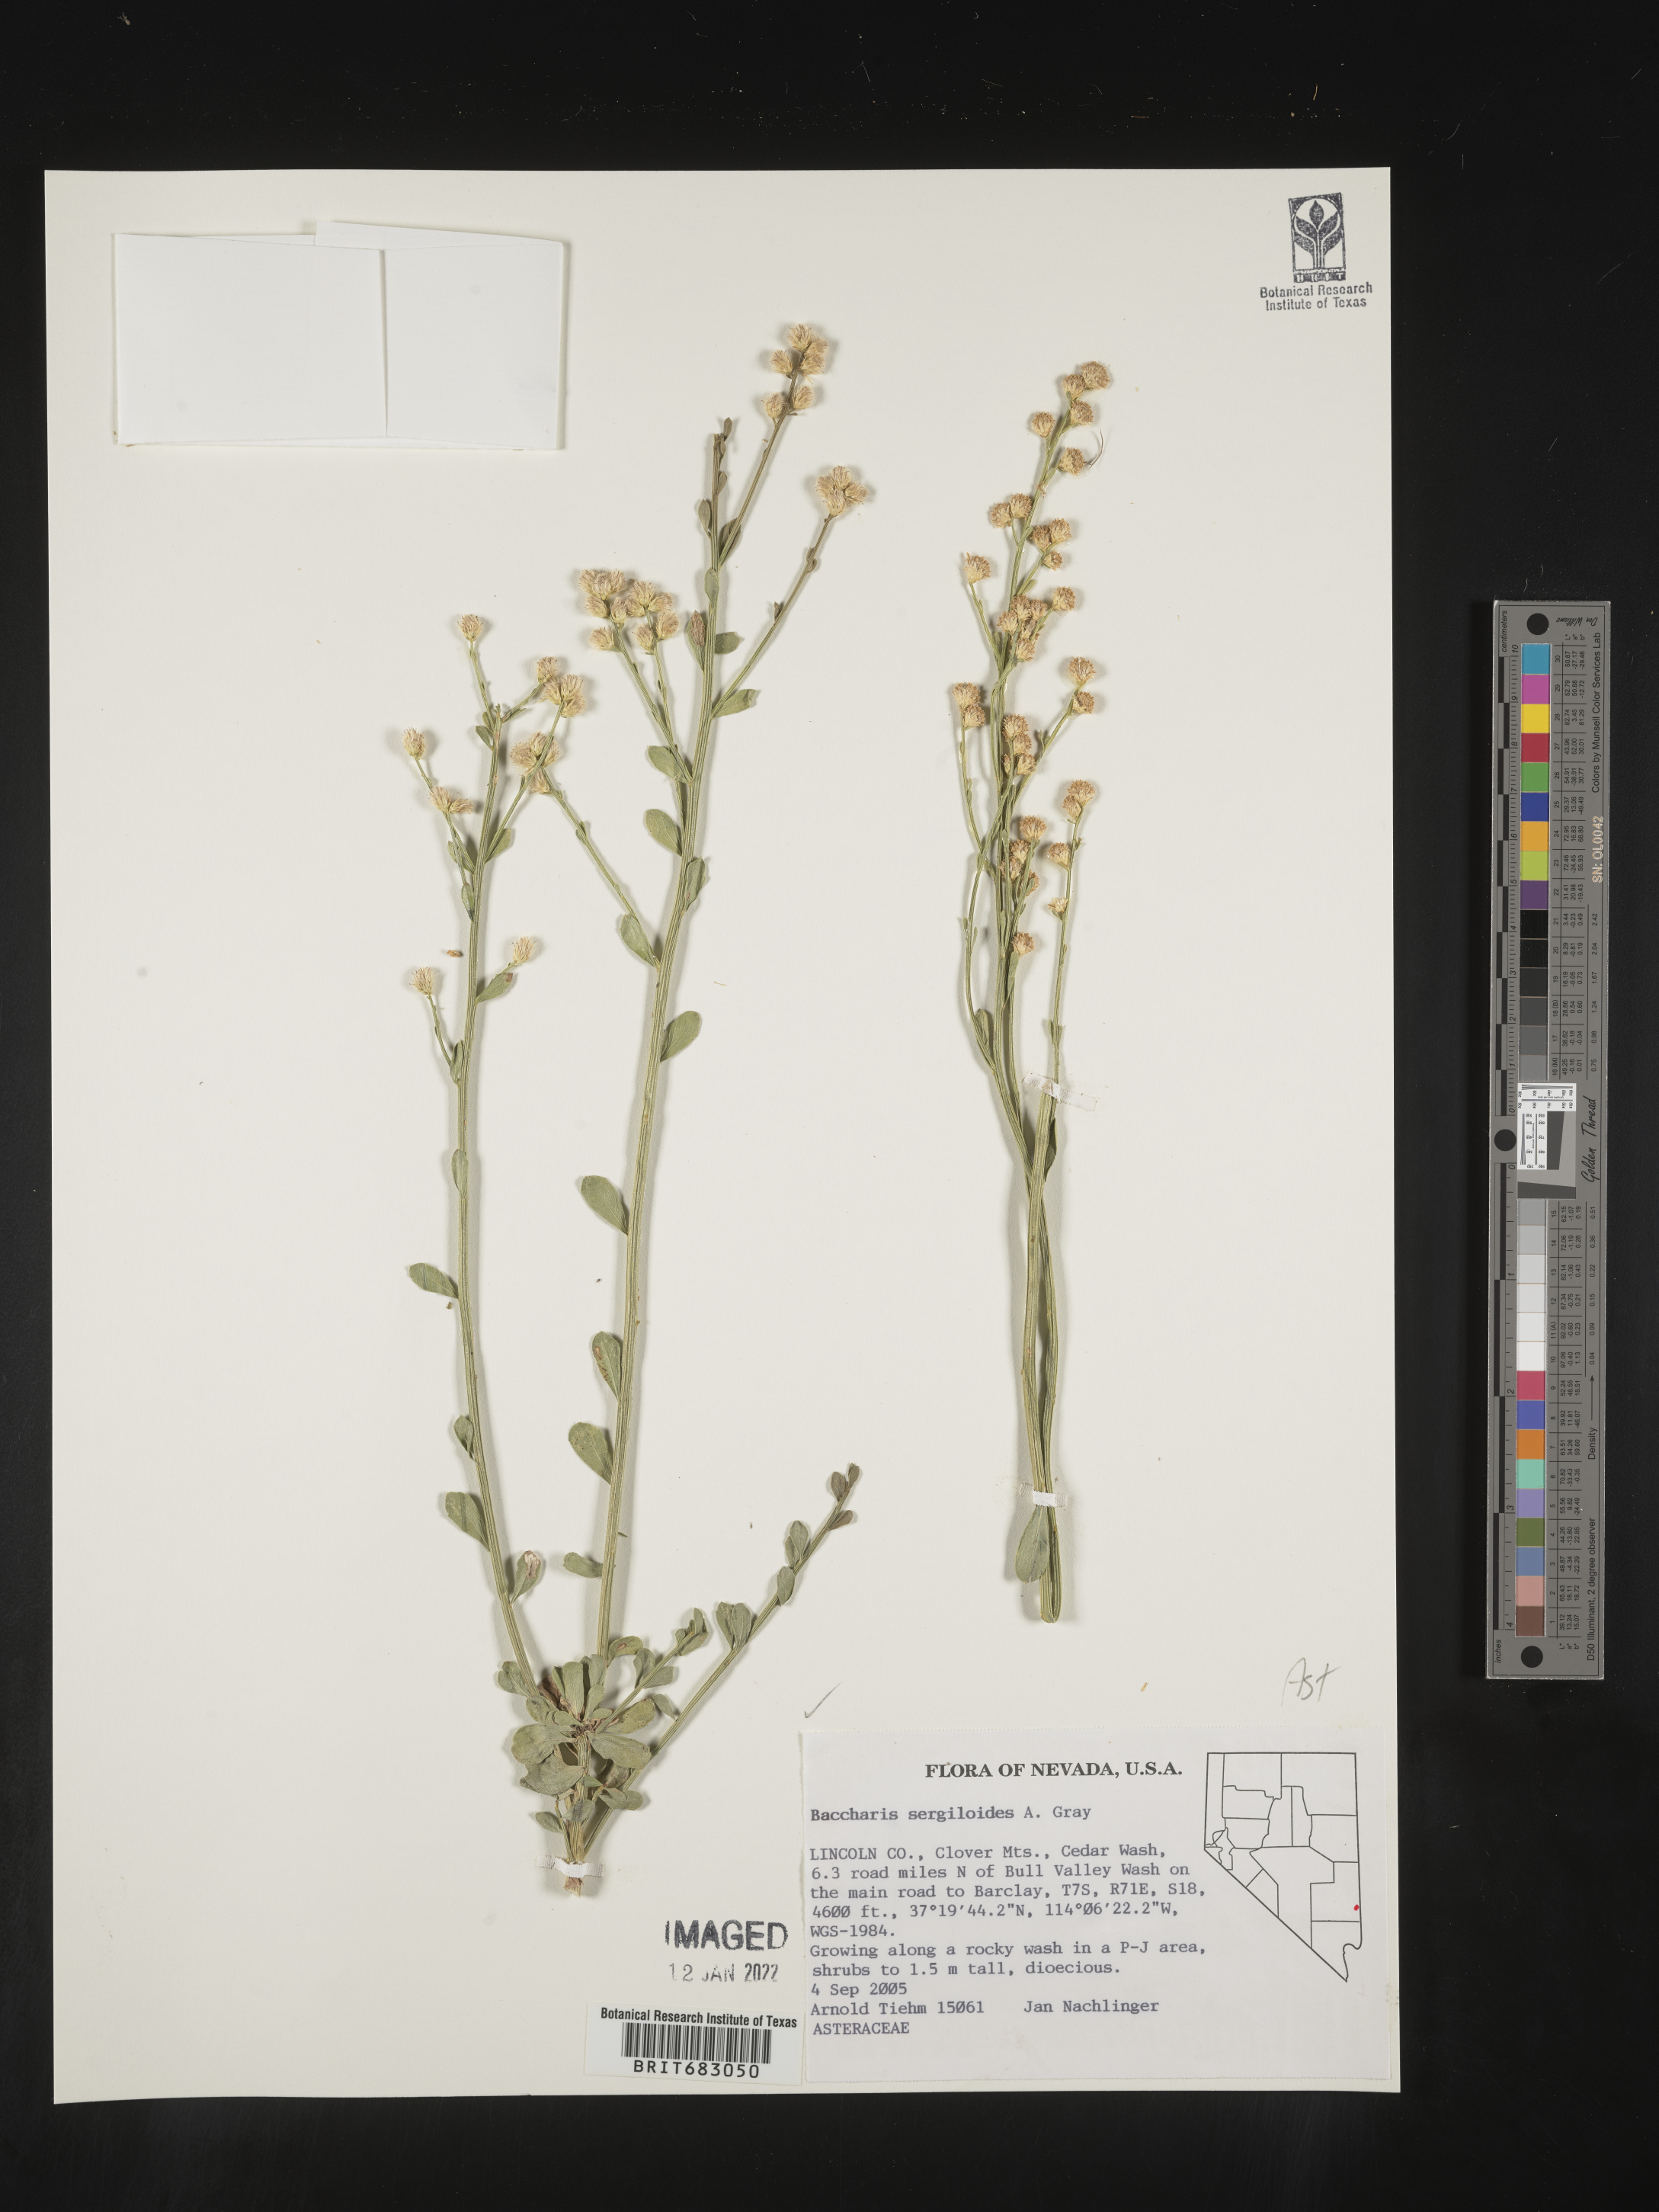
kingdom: Plantae
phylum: Tracheophyta
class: Magnoliopsida
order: Asterales
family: Asteraceae
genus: Baccharis
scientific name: Baccharis sergiloides
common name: Desert baccharis
